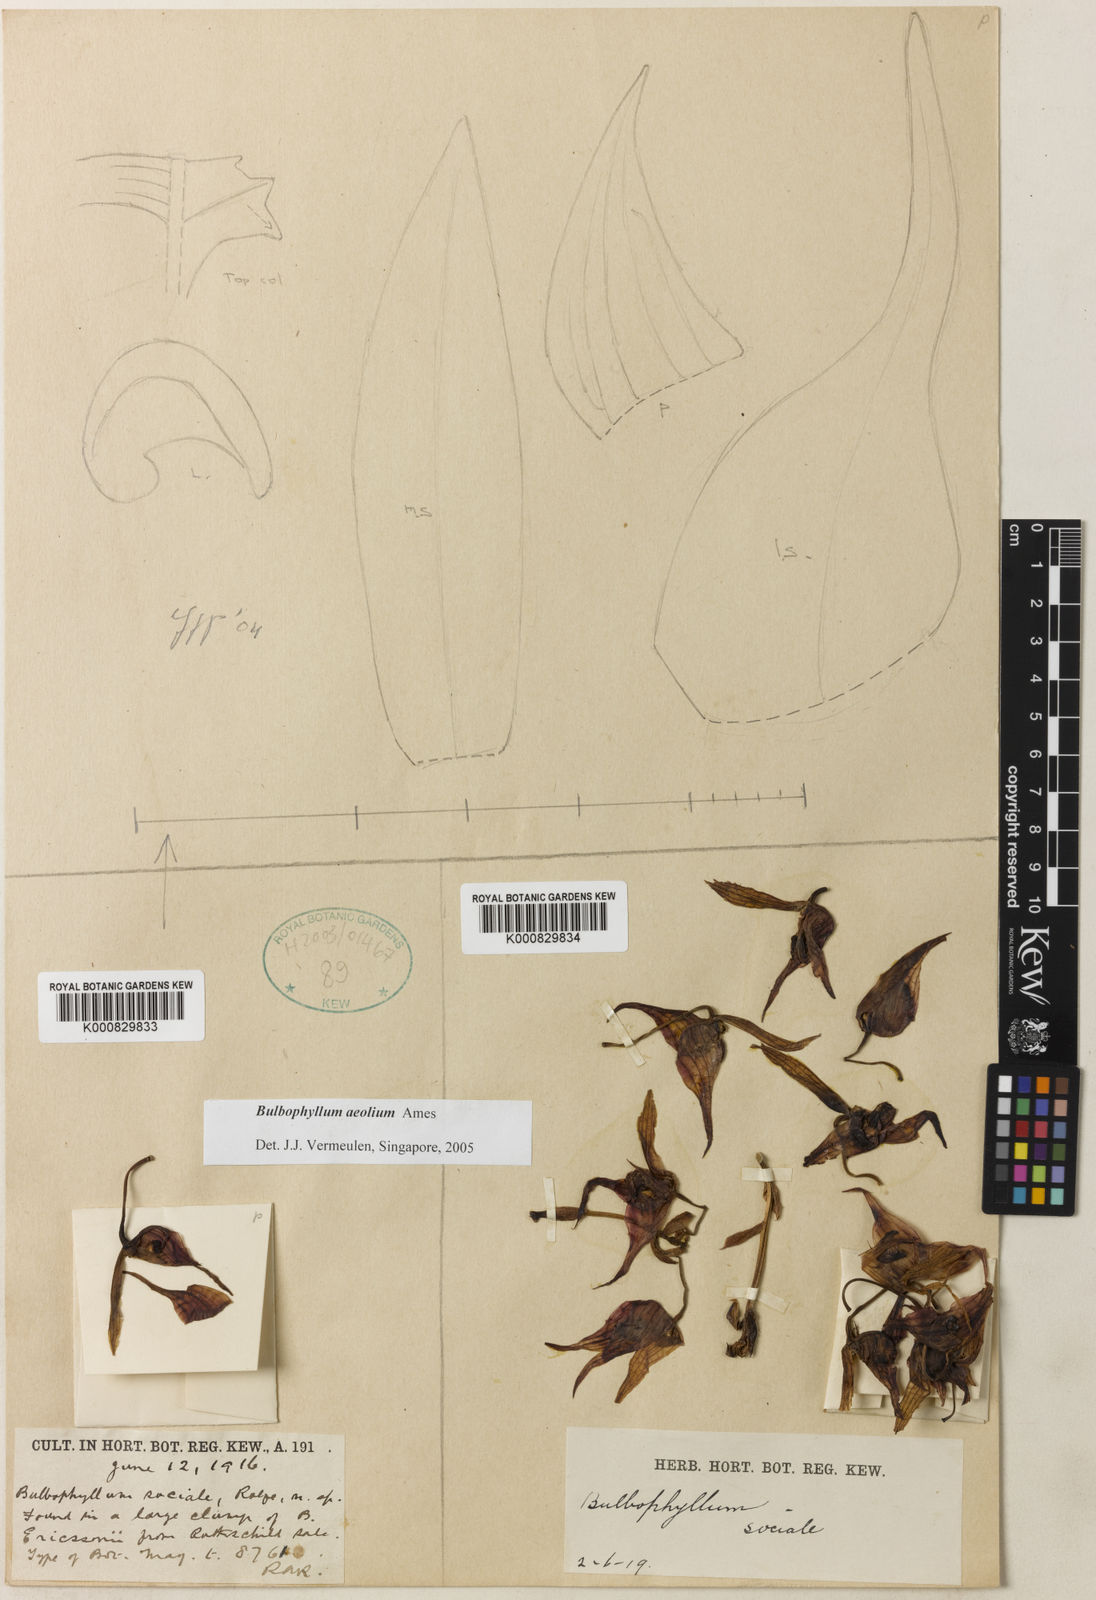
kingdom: Plantae
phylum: Tracheophyta
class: Liliopsida
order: Asparagales
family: Orchidaceae
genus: Bulbophyllum
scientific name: Bulbophyllum aeolium
